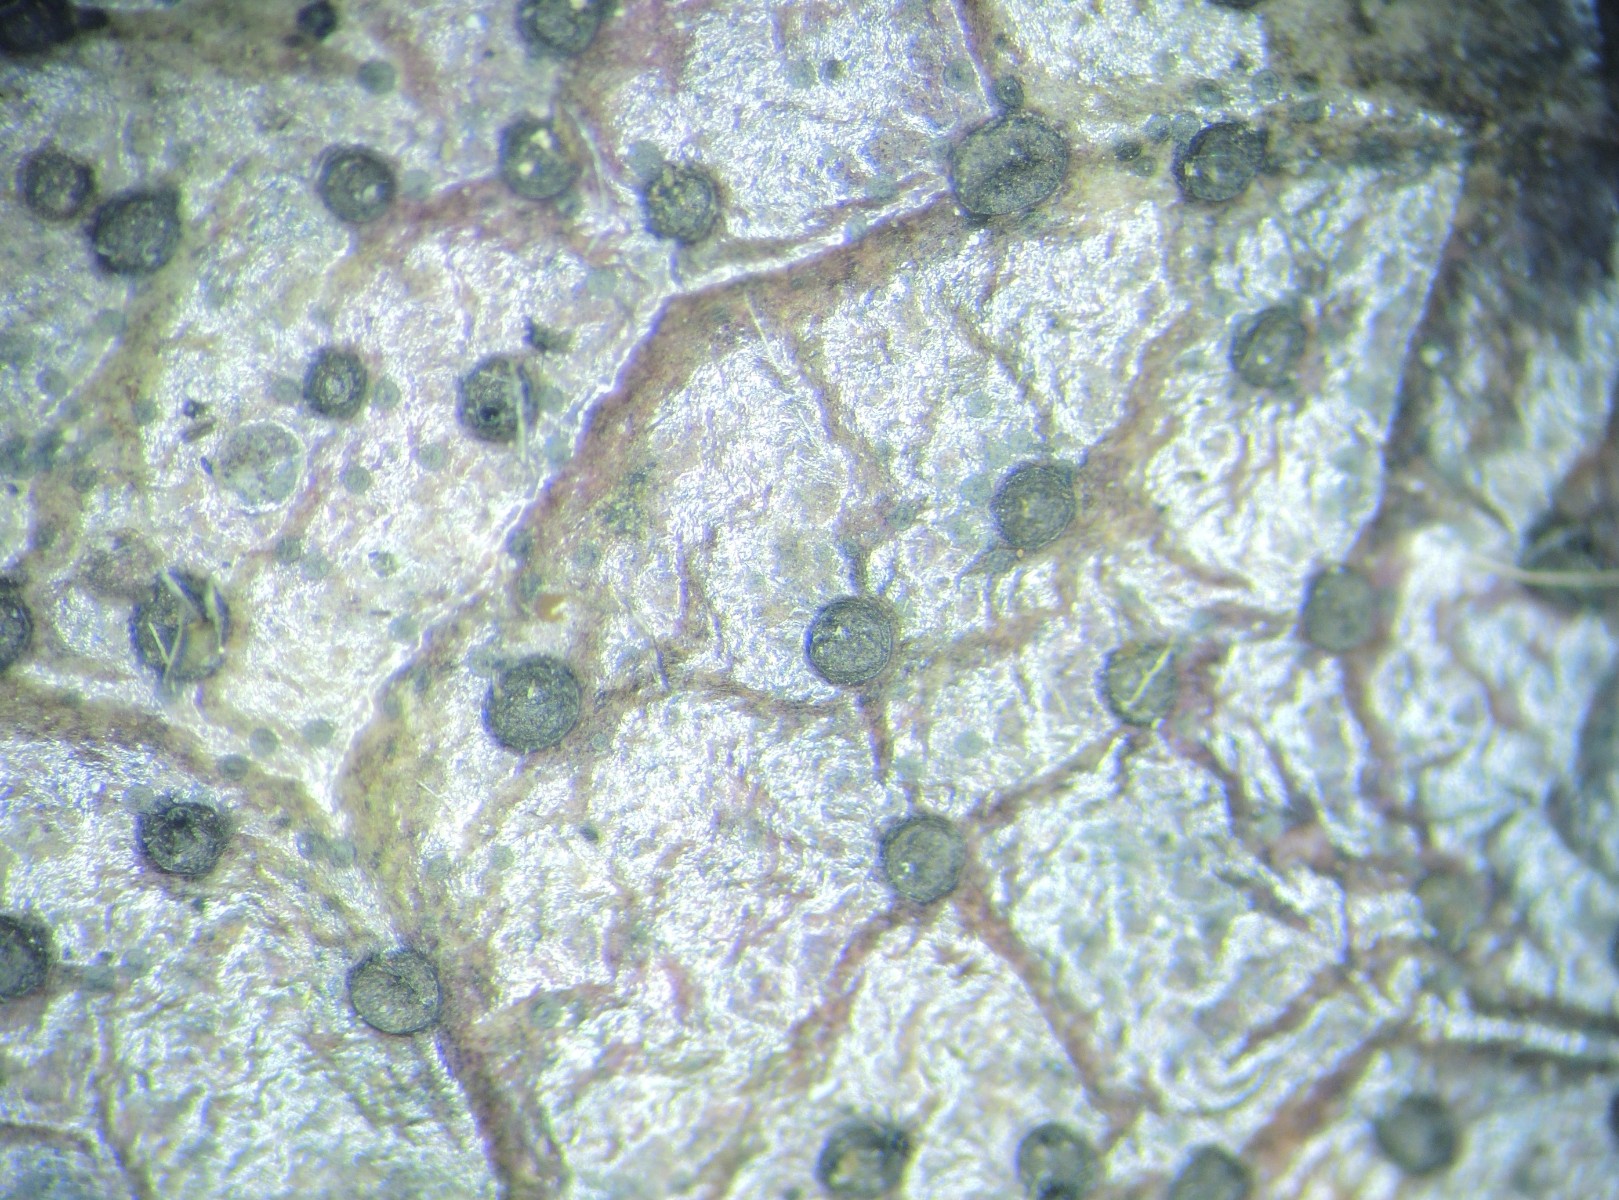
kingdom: Fungi
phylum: Ascomycota
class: Leotiomycetes
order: Helotiales
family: Cenangiaceae
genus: Trochila
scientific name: Trochila ilicina
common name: kristtorn-lågskive
